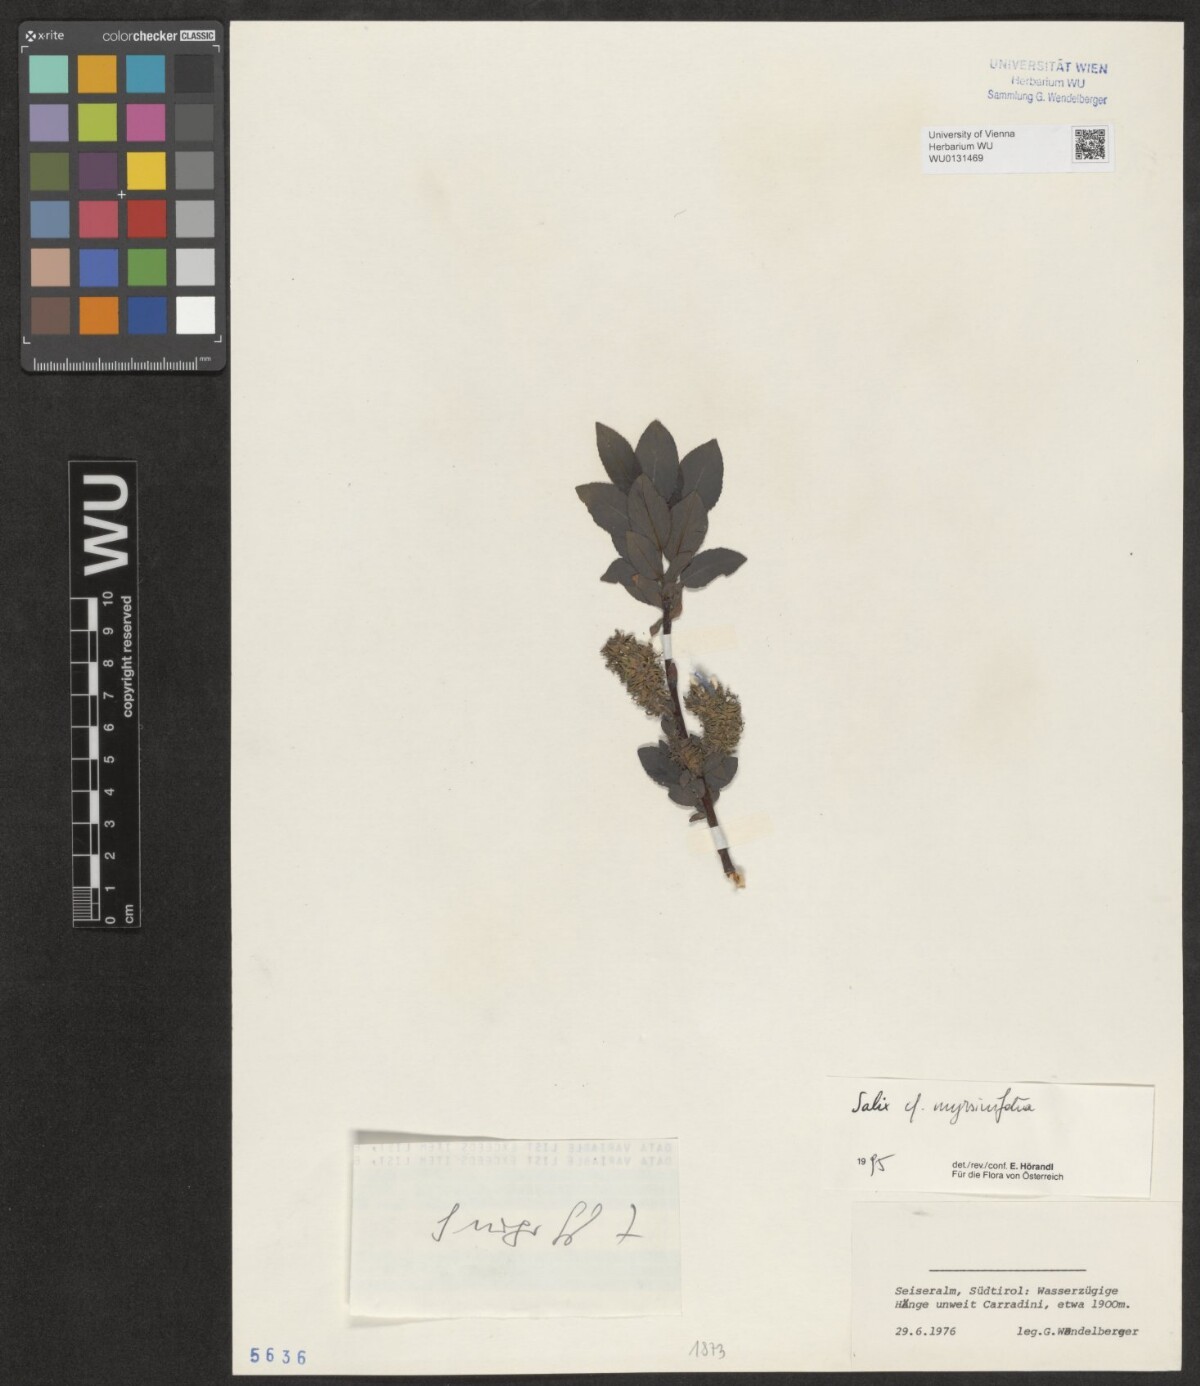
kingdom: Plantae
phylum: Tracheophyta
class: Magnoliopsida
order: Malpighiales
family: Salicaceae
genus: Salix
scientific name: Salix myrsinifolia
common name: Dark-leaved willow
